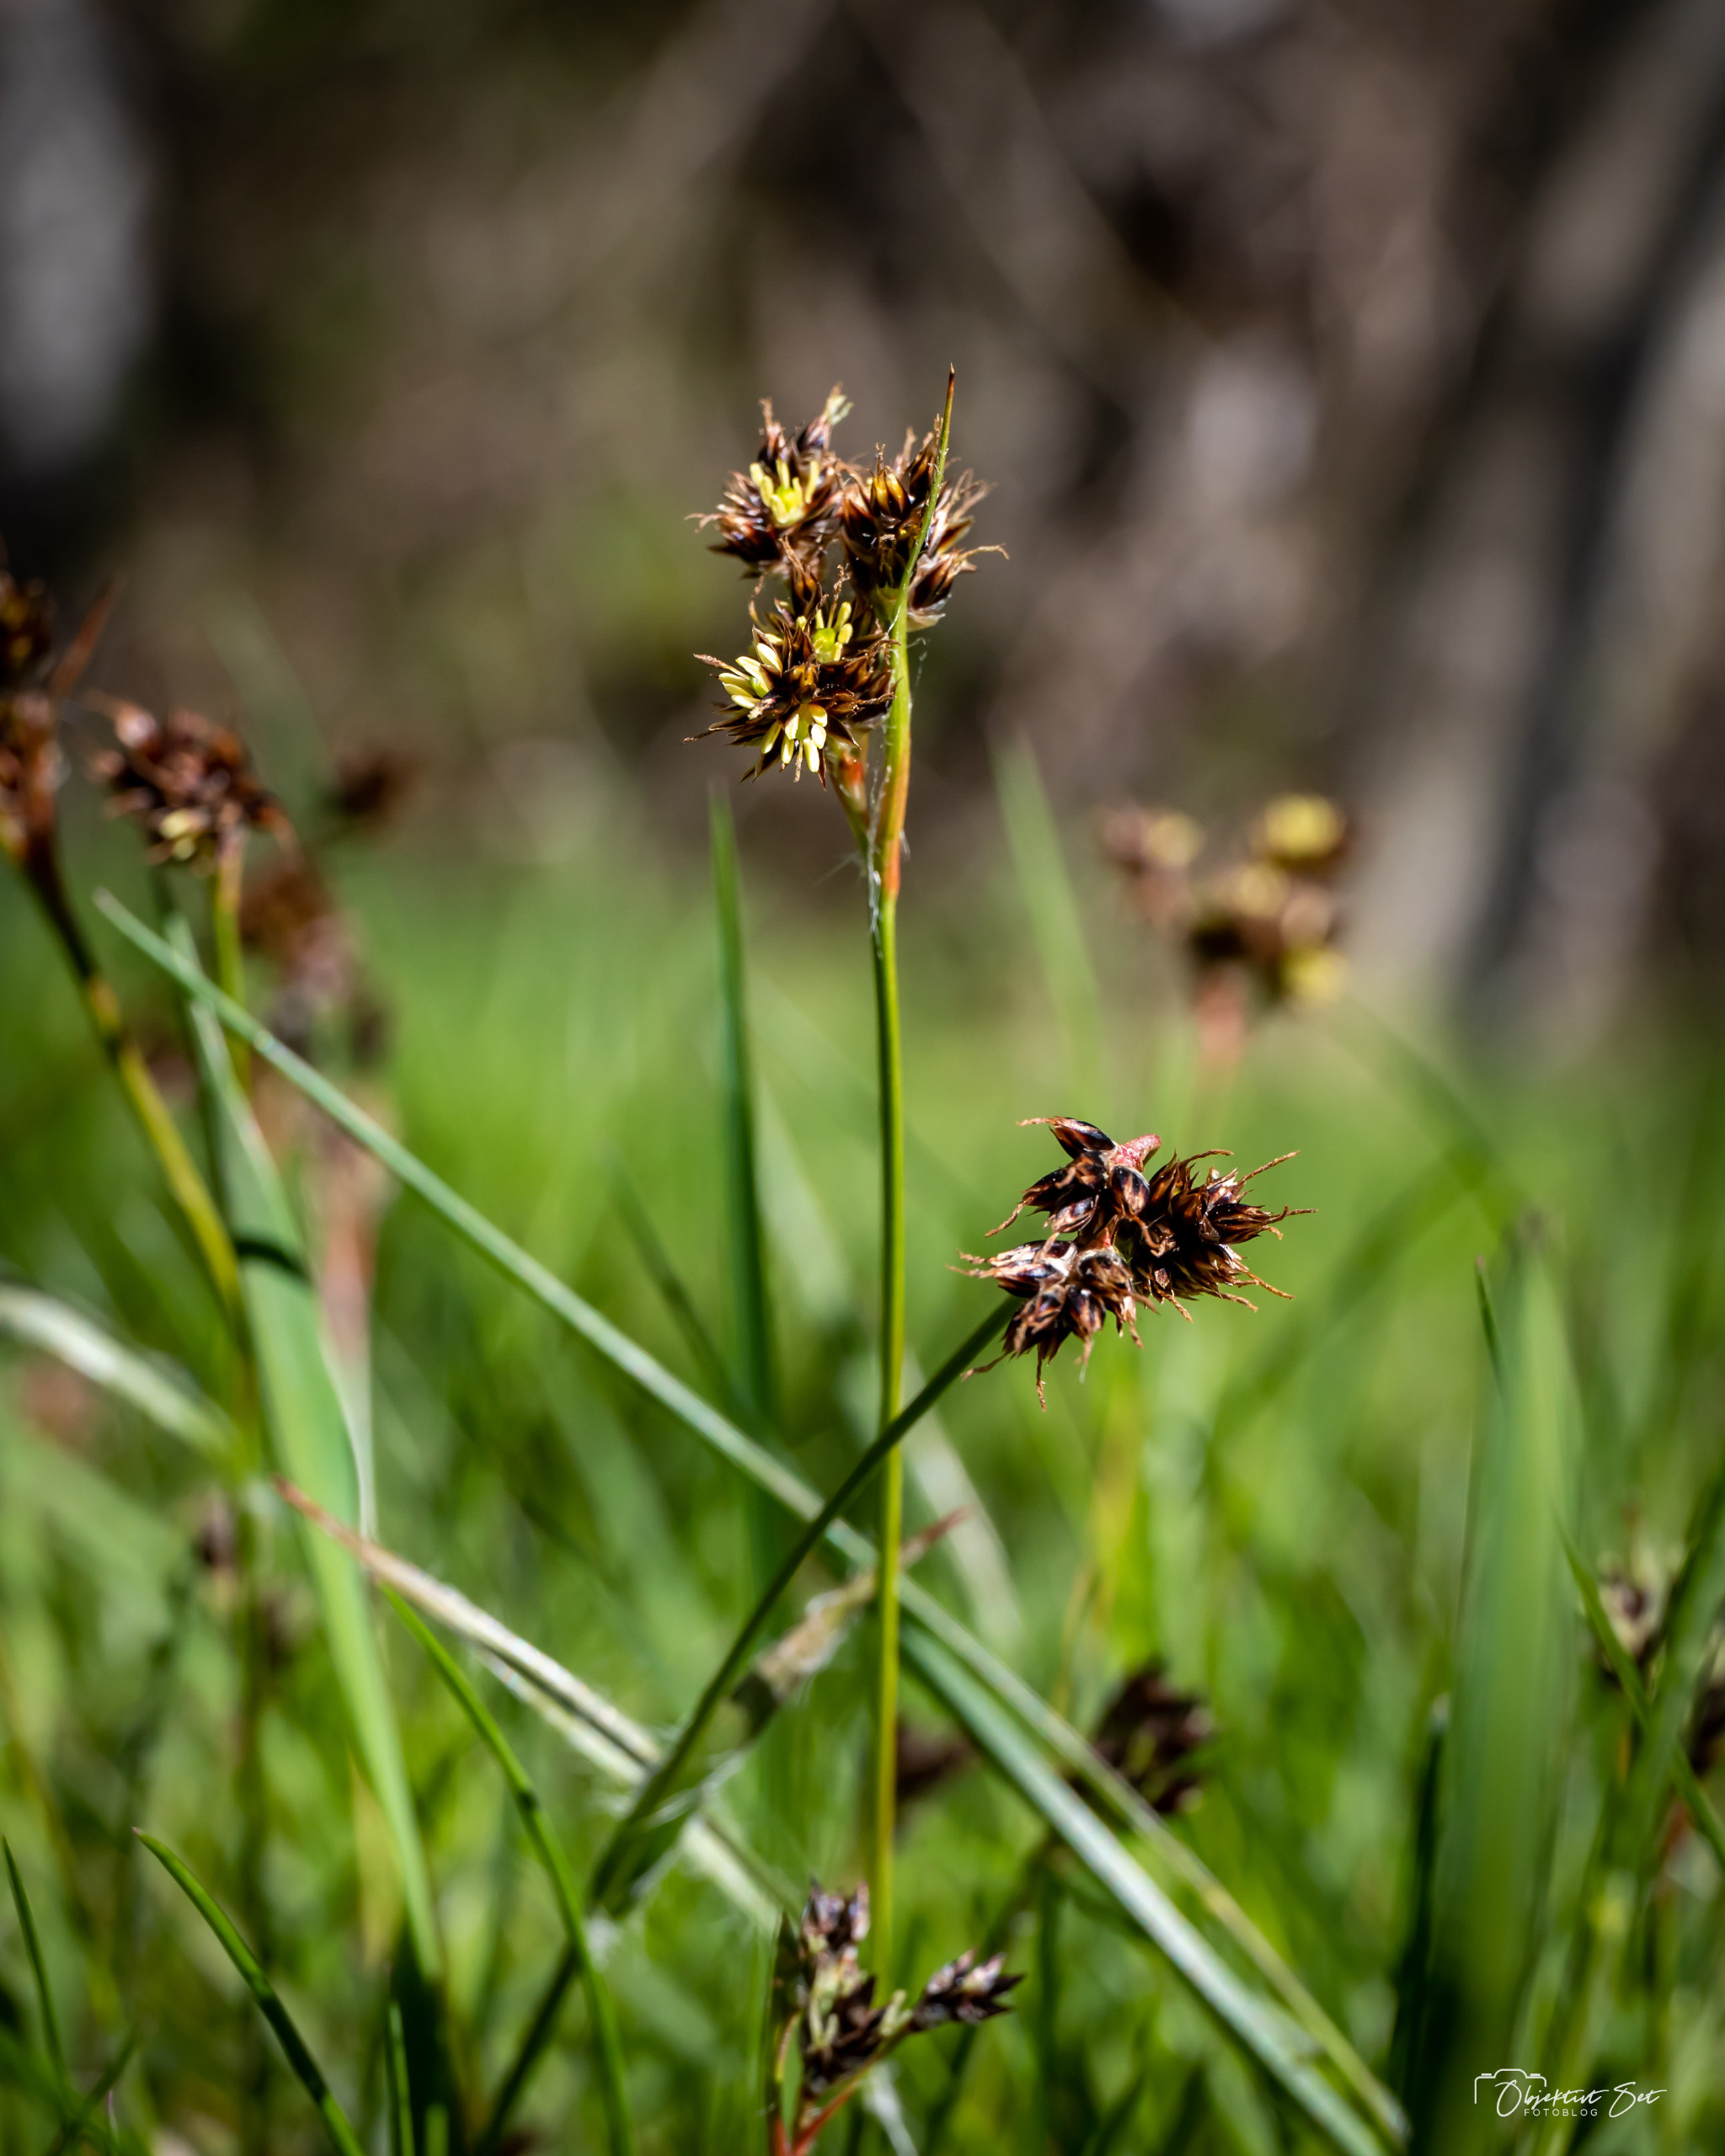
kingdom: Plantae
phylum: Tracheophyta
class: Liliopsida
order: Poales
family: Juncaceae
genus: Luzula
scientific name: Luzula campestris
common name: Mark-frytle
